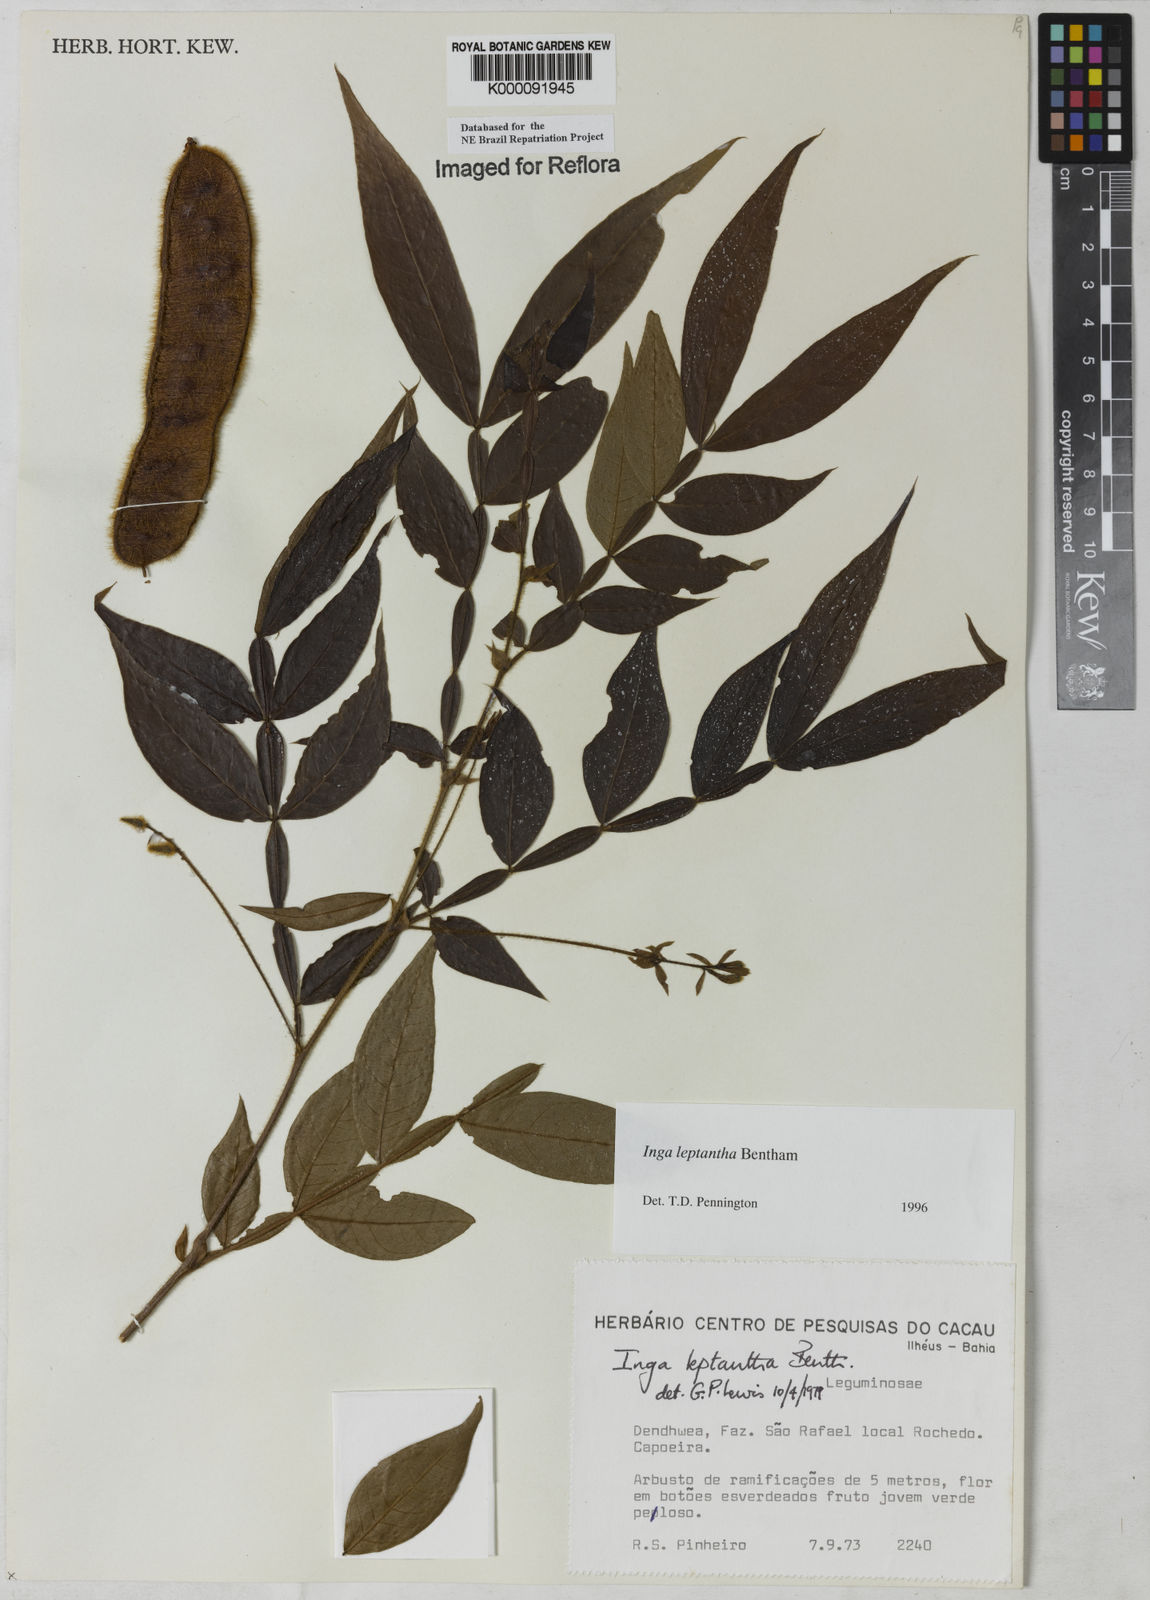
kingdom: Plantae
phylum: Tracheophyta
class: Magnoliopsida
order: Fabales
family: Fabaceae
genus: Inga
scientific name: Inga leptantha
